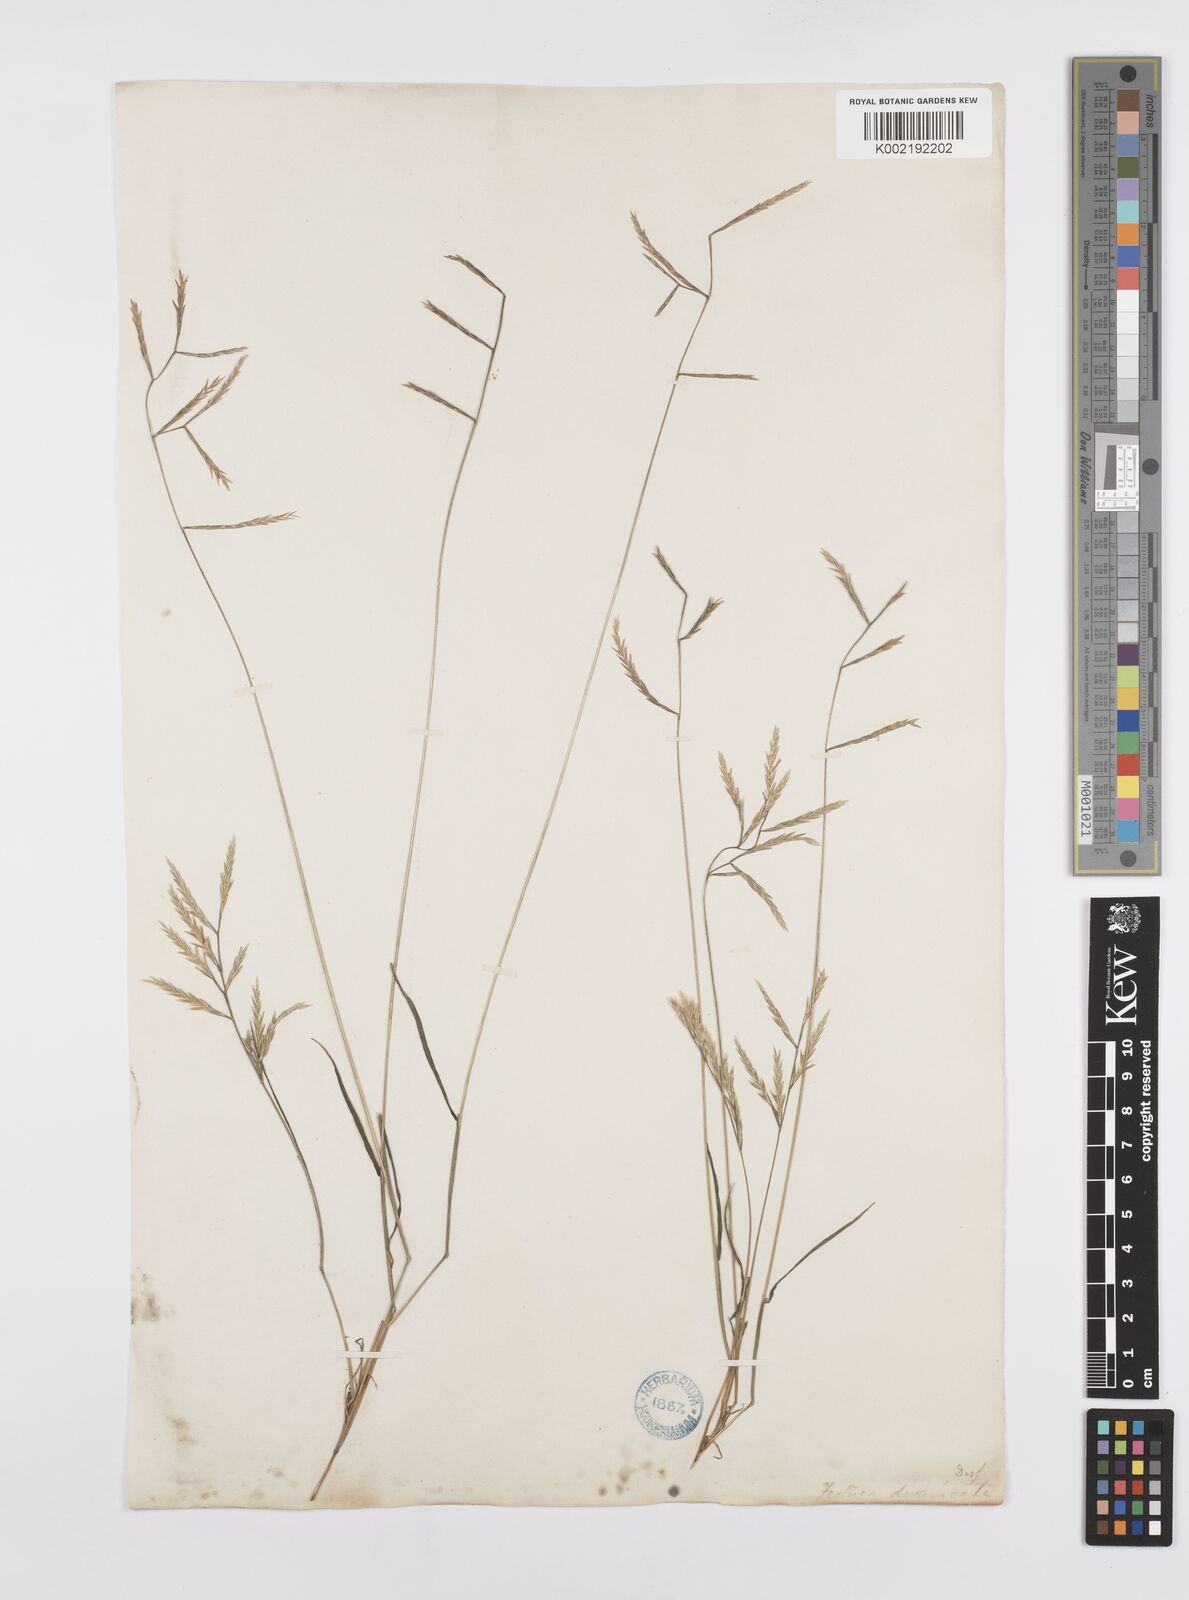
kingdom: Plantae
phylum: Tracheophyta
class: Liliopsida
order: Poales
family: Poaceae
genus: Cutandia
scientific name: Cutandia divaricata
